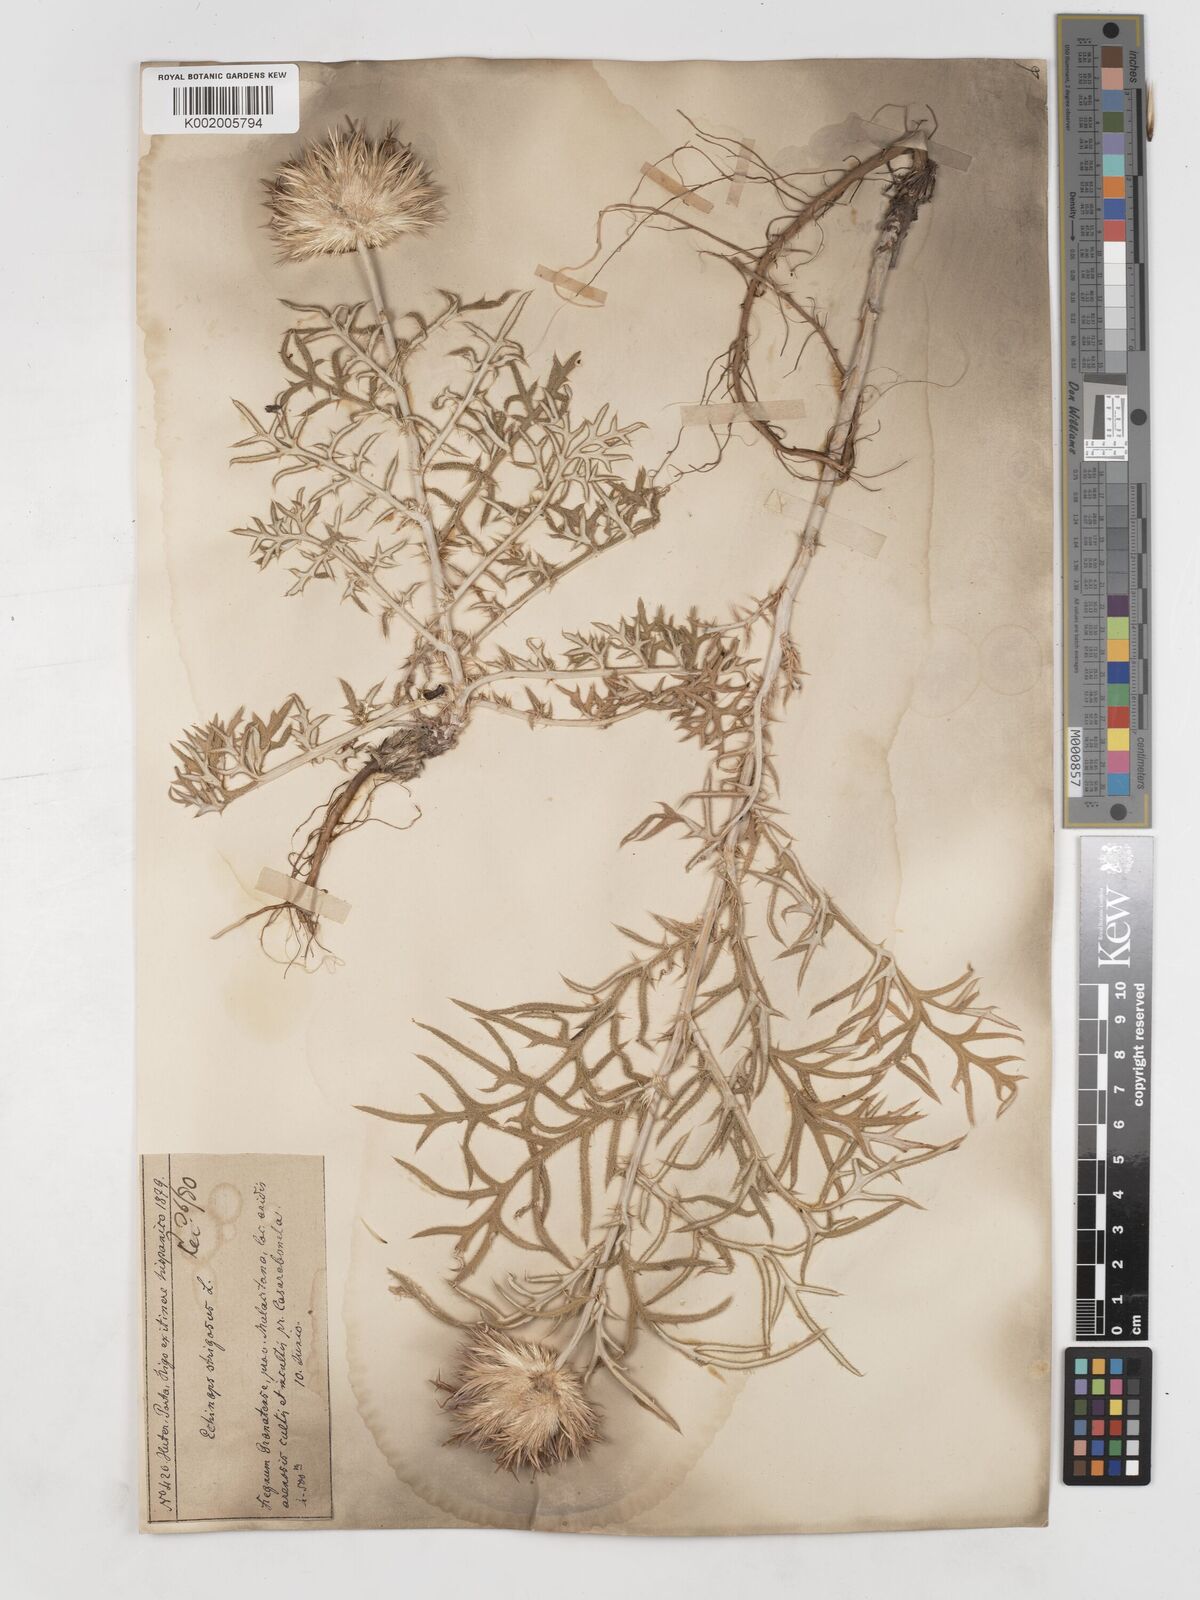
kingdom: Plantae
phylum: Tracheophyta
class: Magnoliopsida
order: Asterales
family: Asteraceae
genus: Echinops
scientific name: Echinops strigosus
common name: Rough-leaf globe thistle
